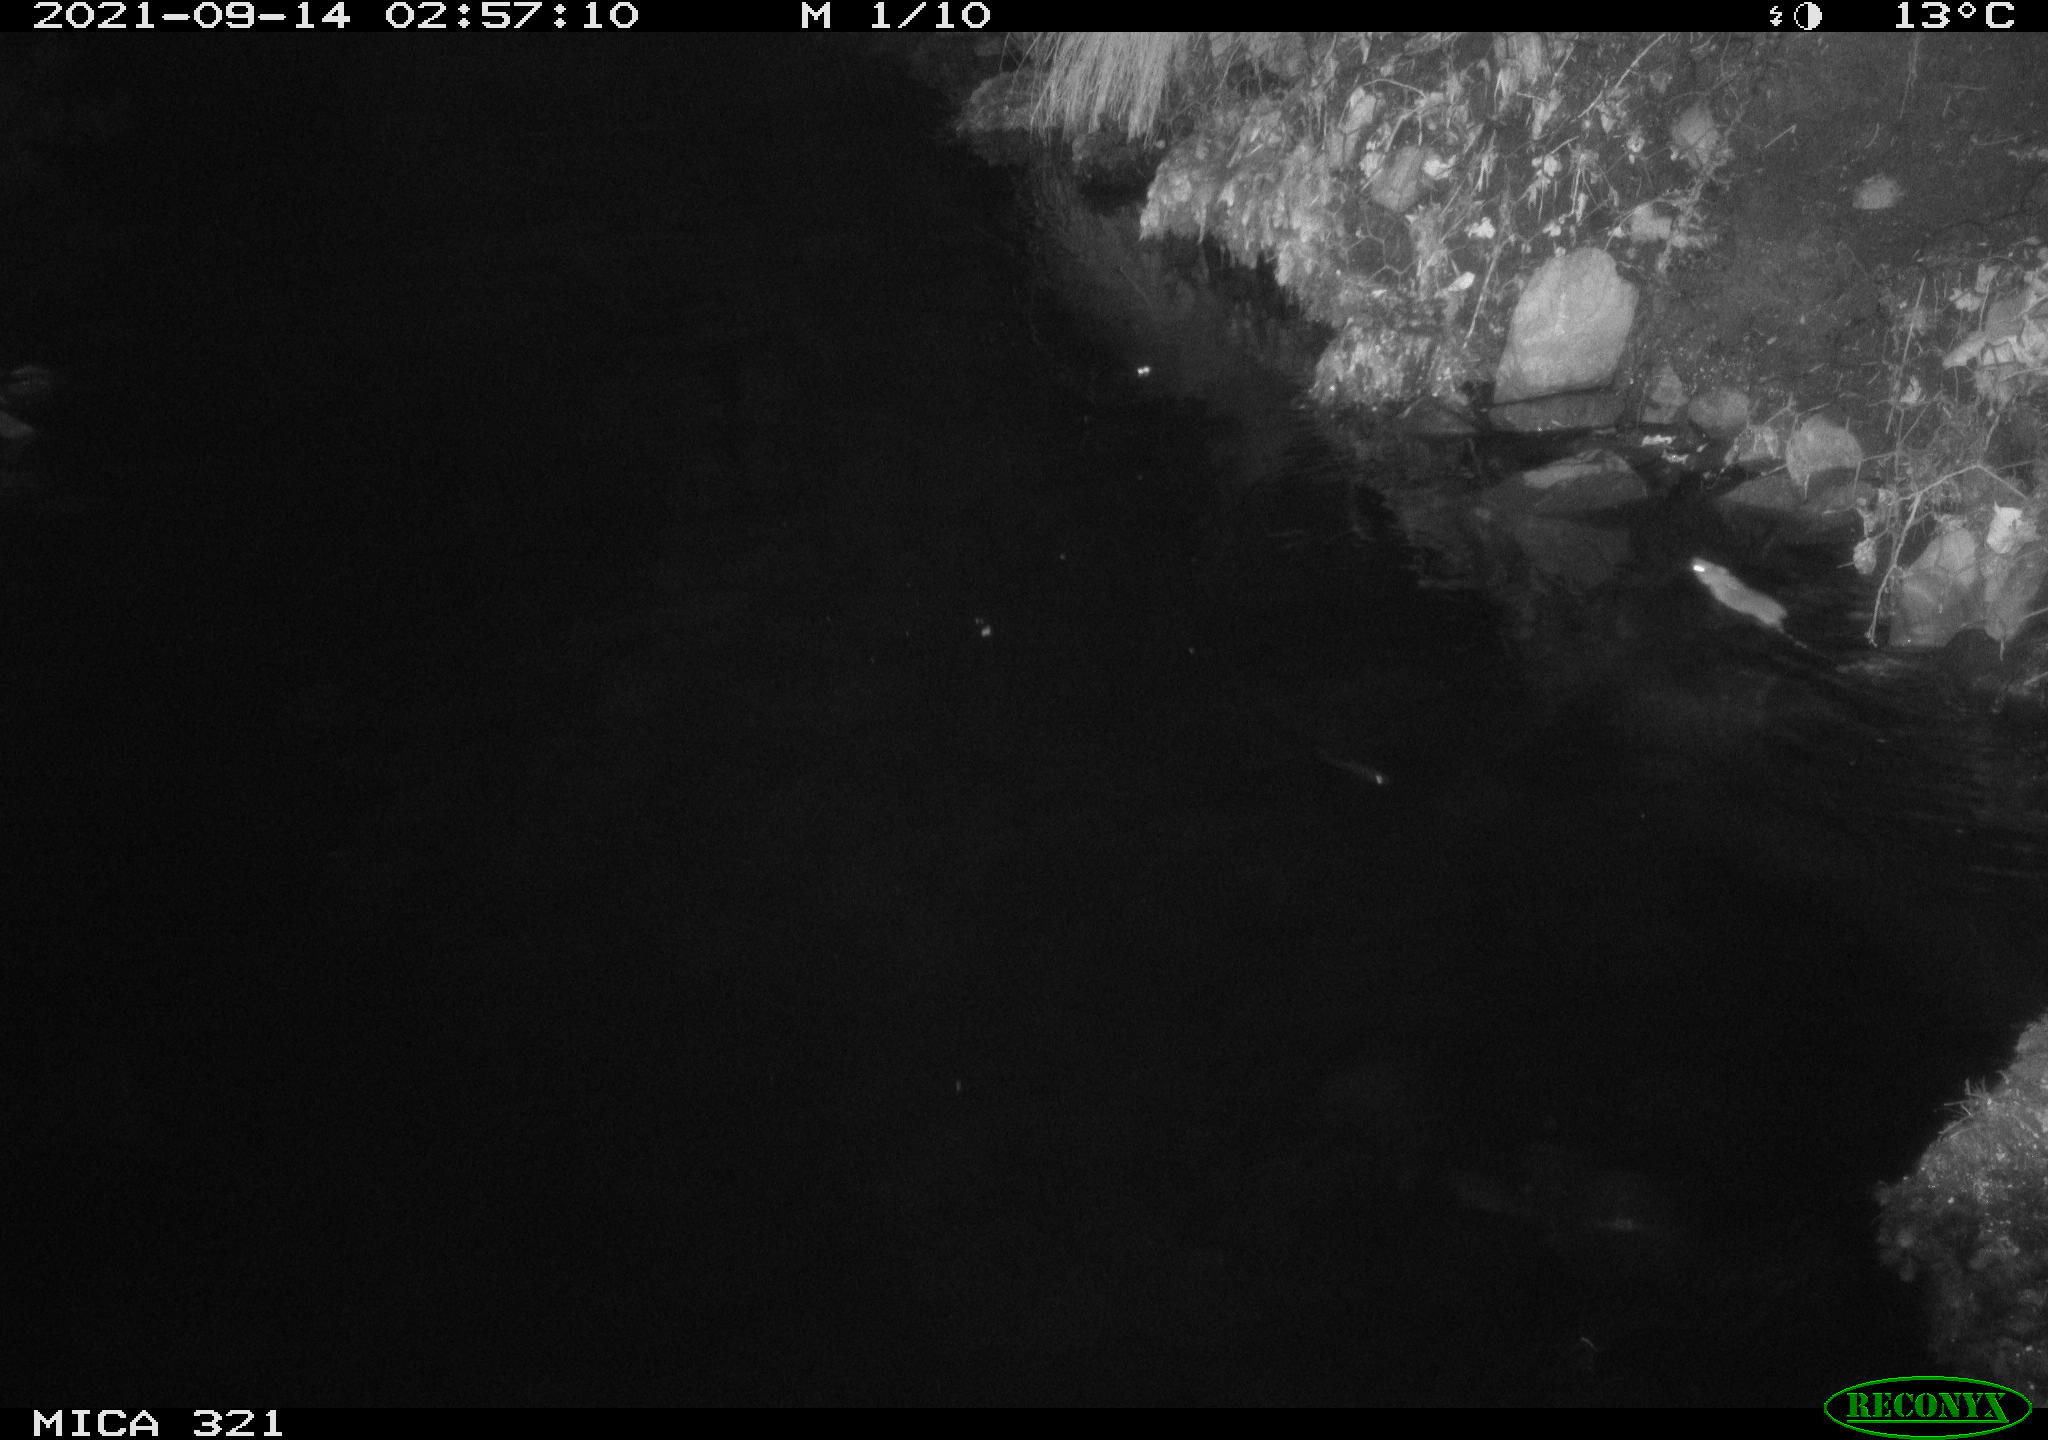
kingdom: Animalia
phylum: Chordata
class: Mammalia
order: Rodentia
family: Muridae
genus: Rattus
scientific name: Rattus norvegicus
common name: Brown rat
